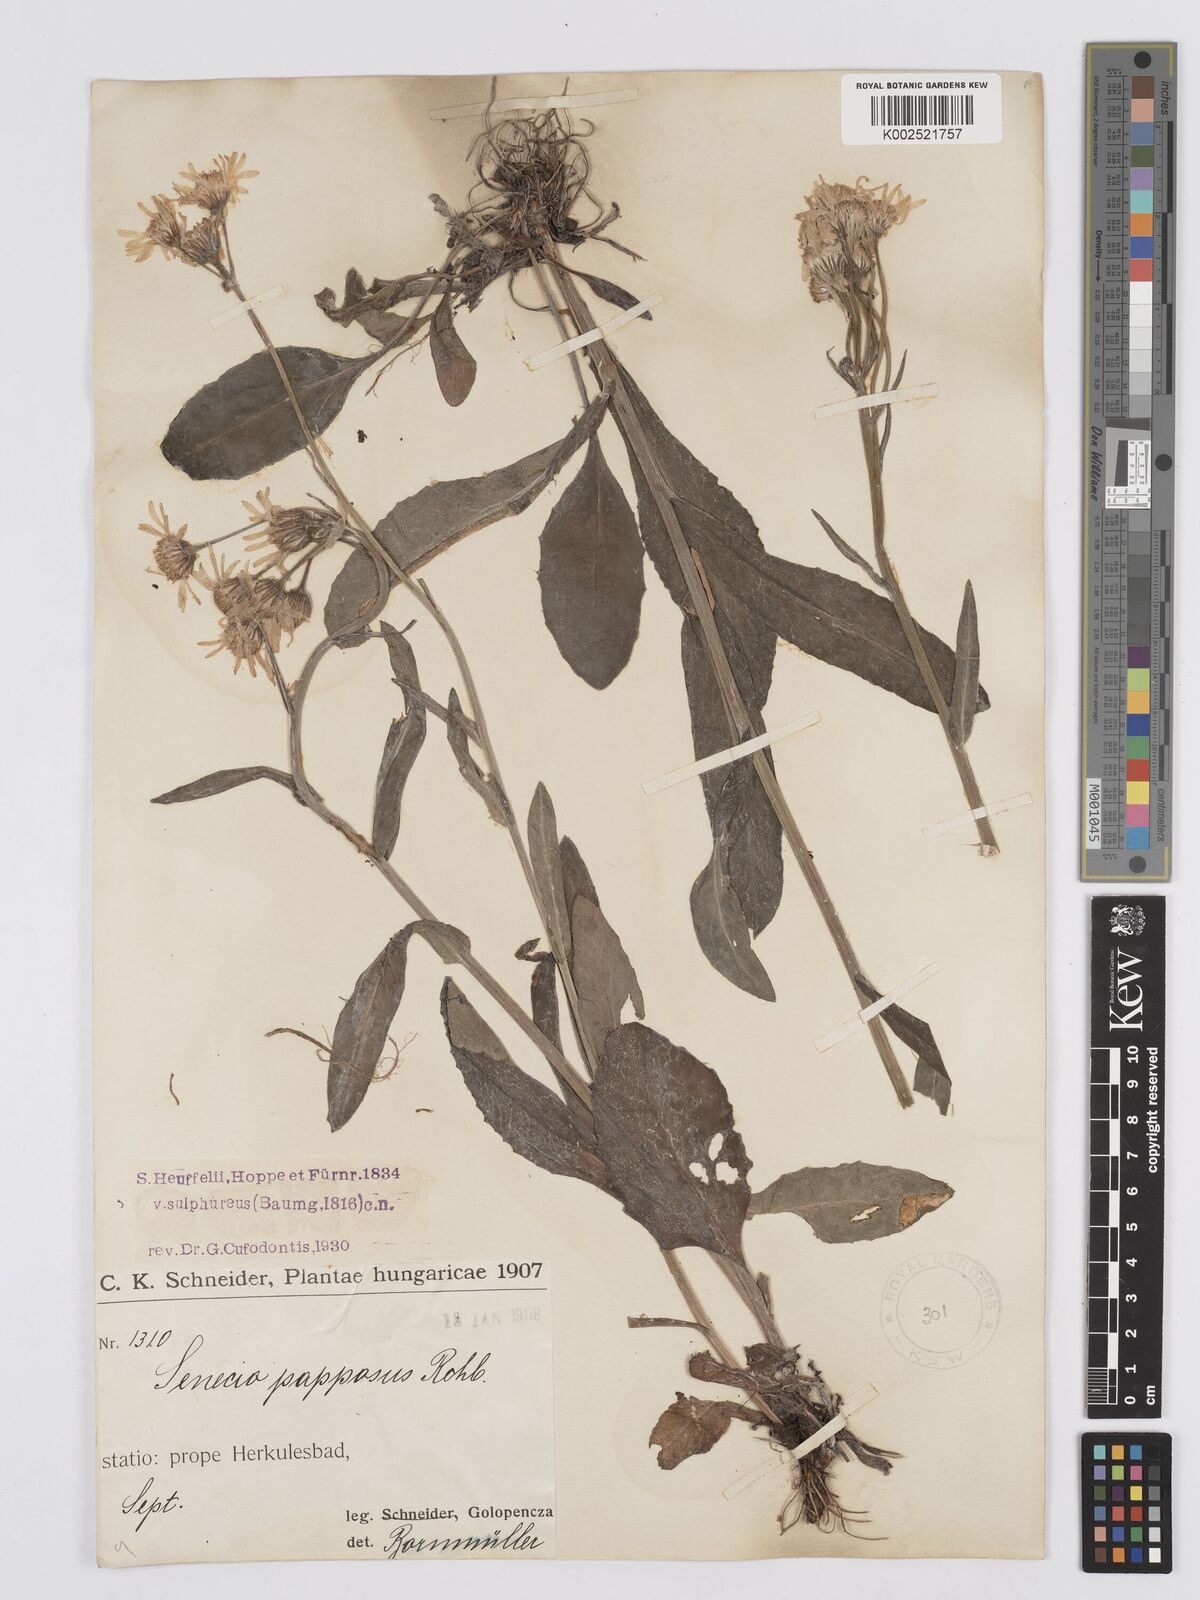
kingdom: Plantae
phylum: Tracheophyta
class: Magnoliopsida
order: Asterales
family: Asteraceae
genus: Tephroseris
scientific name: Tephroseris papposa
